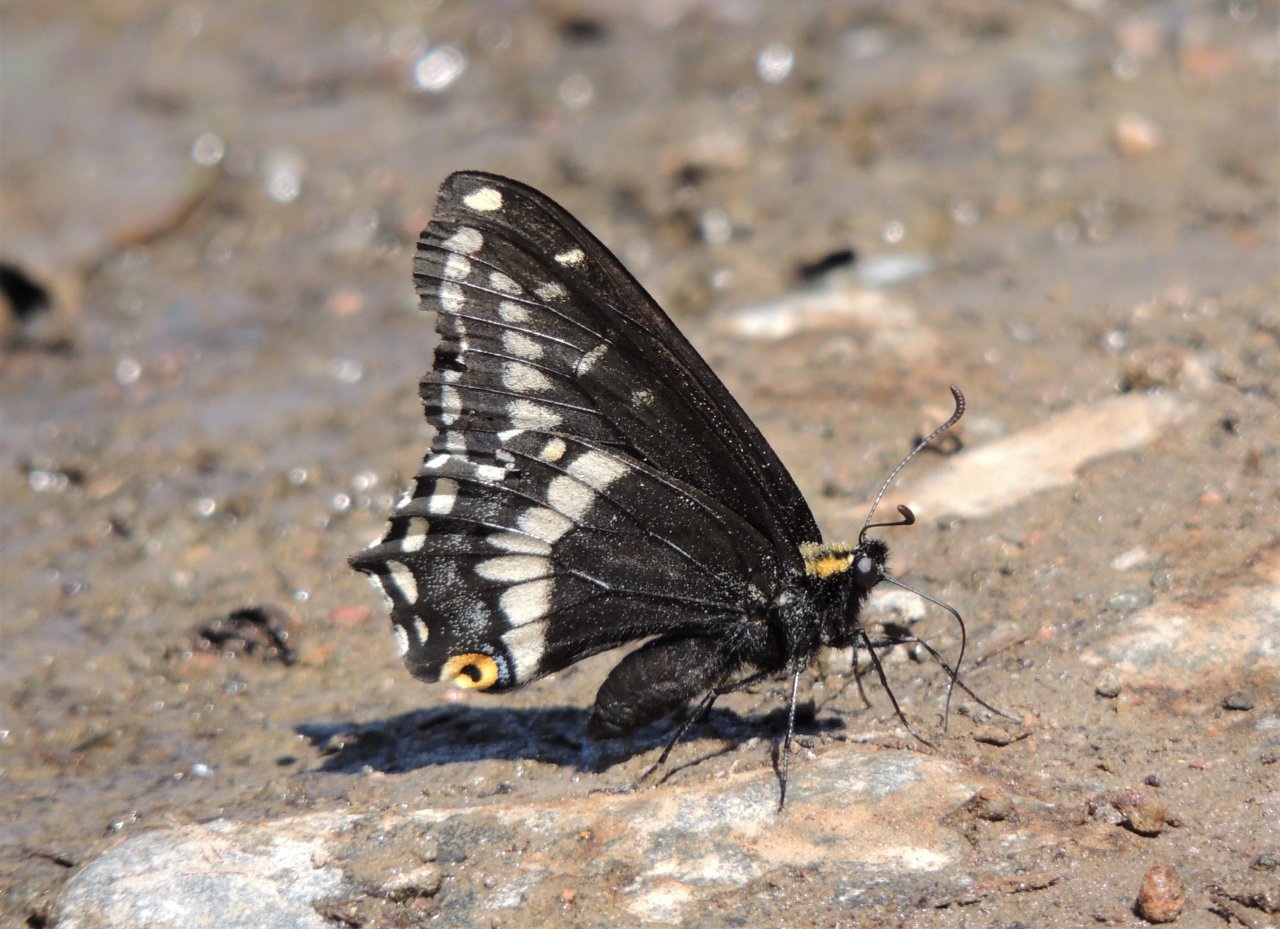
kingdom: Animalia
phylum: Arthropoda
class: Insecta
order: Lepidoptera
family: Papilionidae
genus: Papilio
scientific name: Papilio indra
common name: Indra Swallowtail
